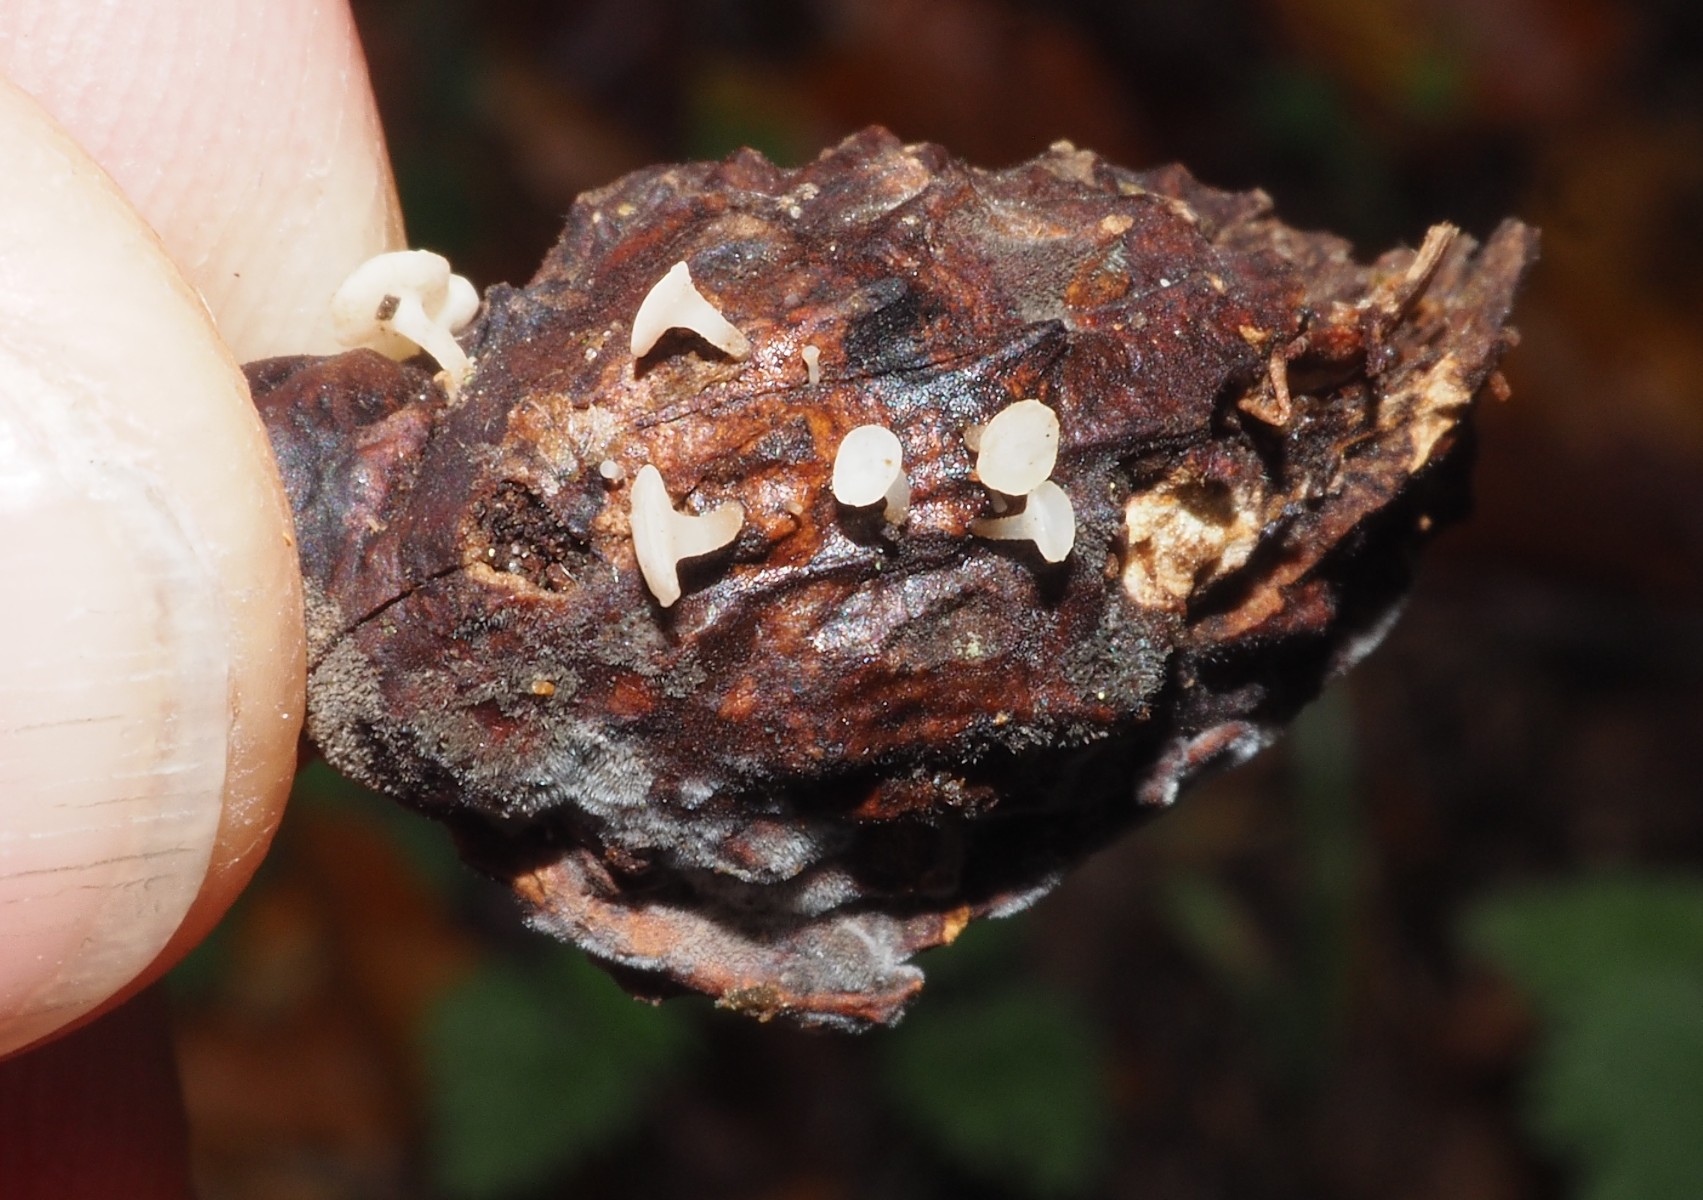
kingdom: Fungi
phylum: Ascomycota
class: Leotiomycetes
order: Helotiales
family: Helotiaceae
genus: Hymenoscyphus
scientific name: Hymenoscyphus
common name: stilkskive
